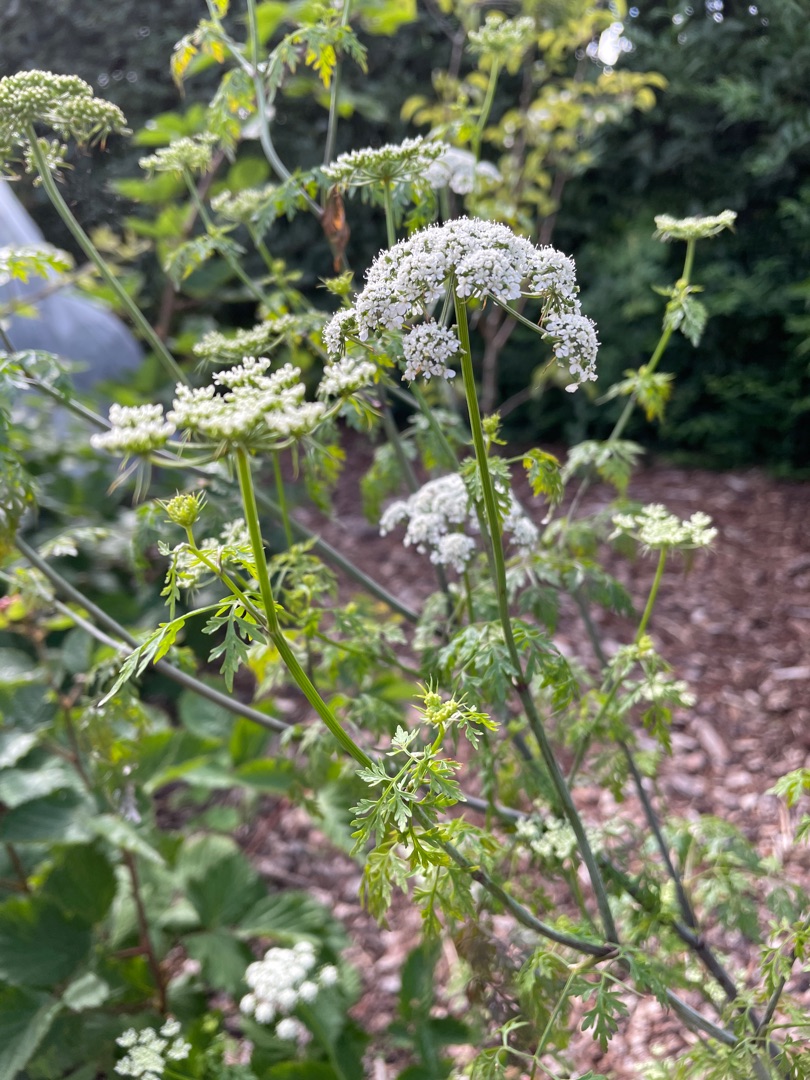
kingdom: Plantae
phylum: Tracheophyta
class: Magnoliopsida
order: Apiales
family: Apiaceae
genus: Aethusa
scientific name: Aethusa cynapium
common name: Hundepersille
